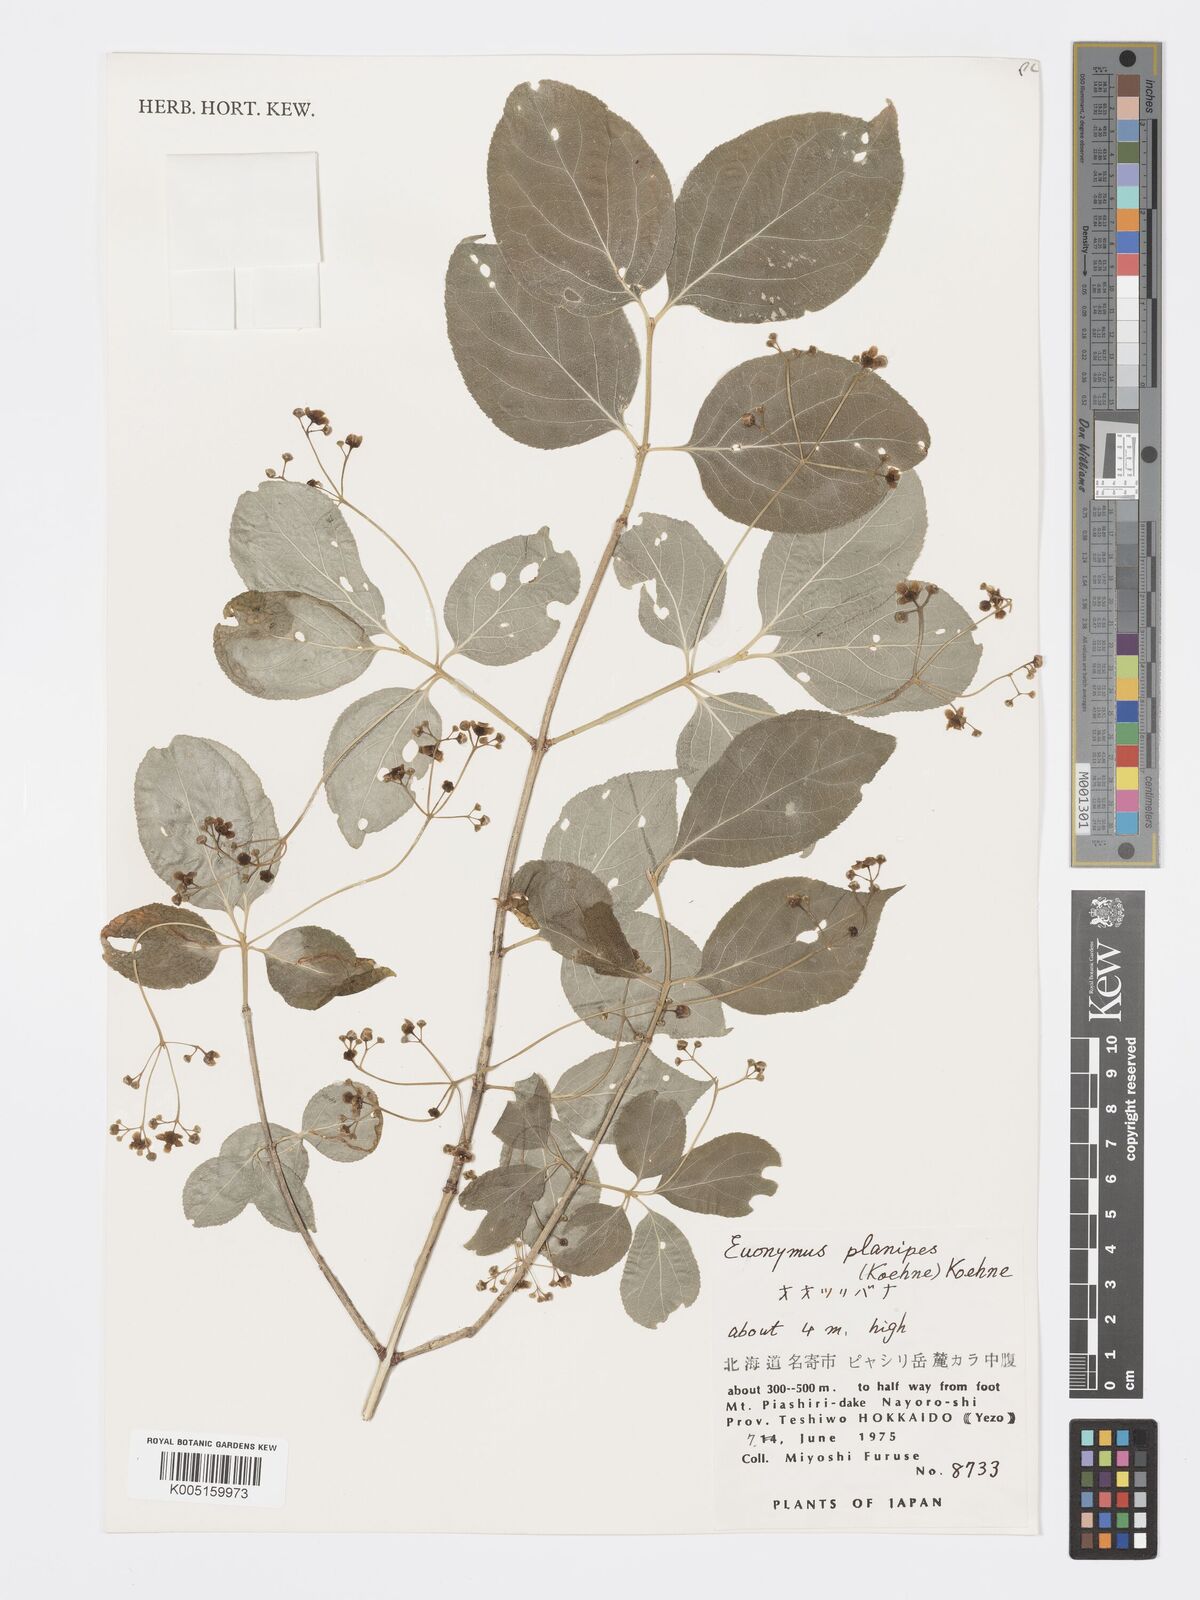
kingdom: Plantae
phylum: Tracheophyta
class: Magnoliopsida
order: Celastrales
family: Celastraceae
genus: Euonymus
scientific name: Euonymus sachalinensis
